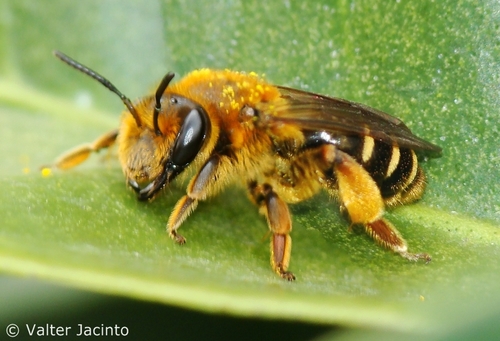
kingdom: Animalia
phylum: Arthropoda
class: Insecta
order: Hymenoptera
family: Andrenidae
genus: Andrena
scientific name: Andrena dorsata
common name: Short-fringed mining bee
